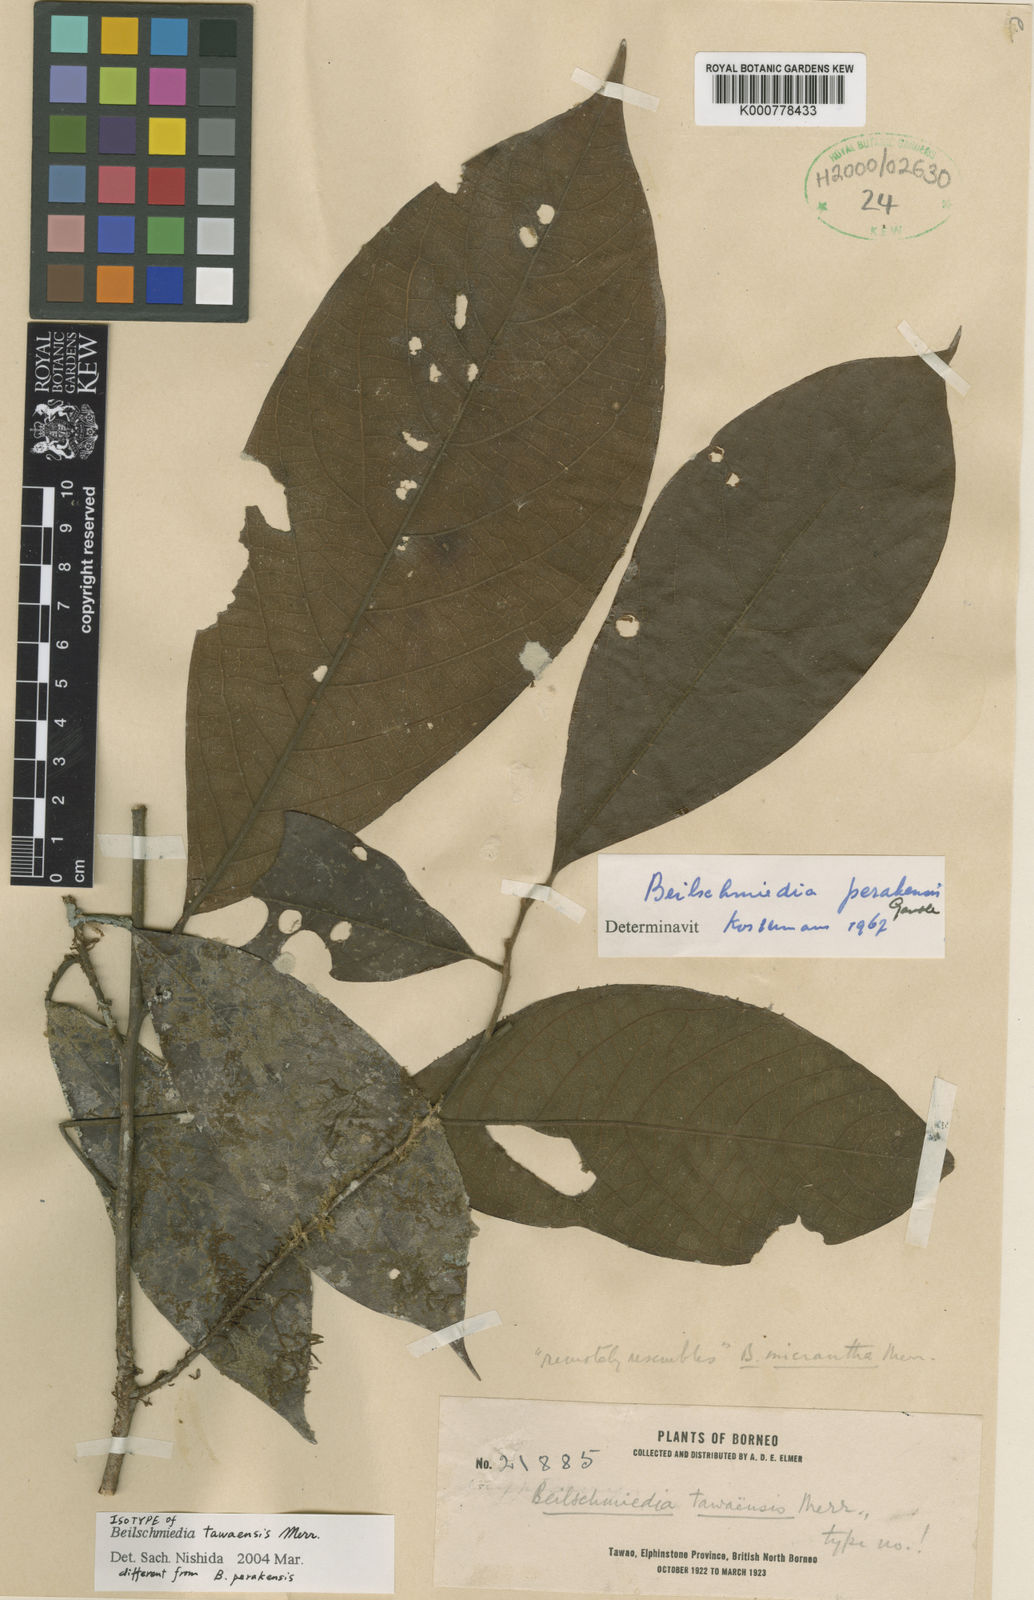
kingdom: Plantae
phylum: Tracheophyta
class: Magnoliopsida
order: Laurales
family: Lauraceae
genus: Beilschmiedia
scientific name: Beilschmiedia madang
